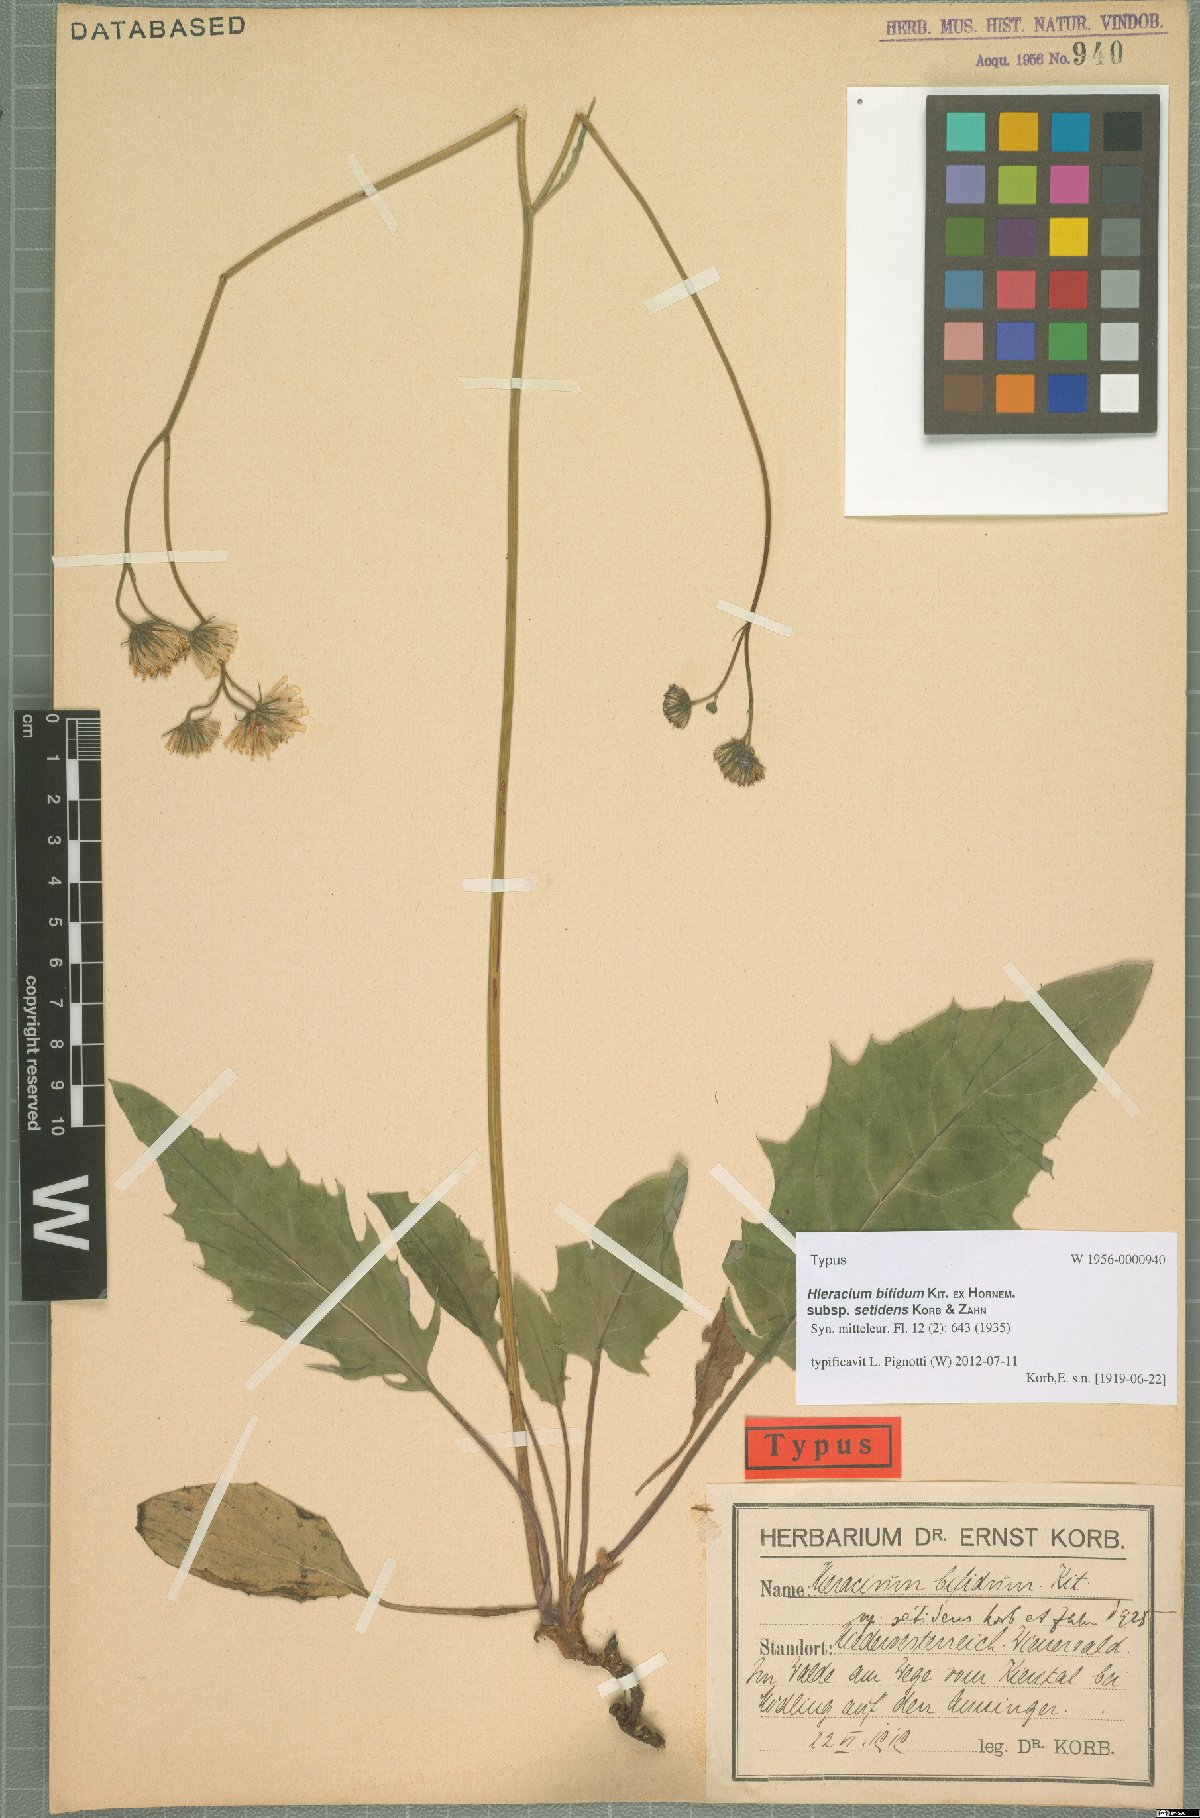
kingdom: Plantae
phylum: Tracheophyta
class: Magnoliopsida
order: Asterales
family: Asteraceae
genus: Hieracium
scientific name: Hieracium subcaesium
